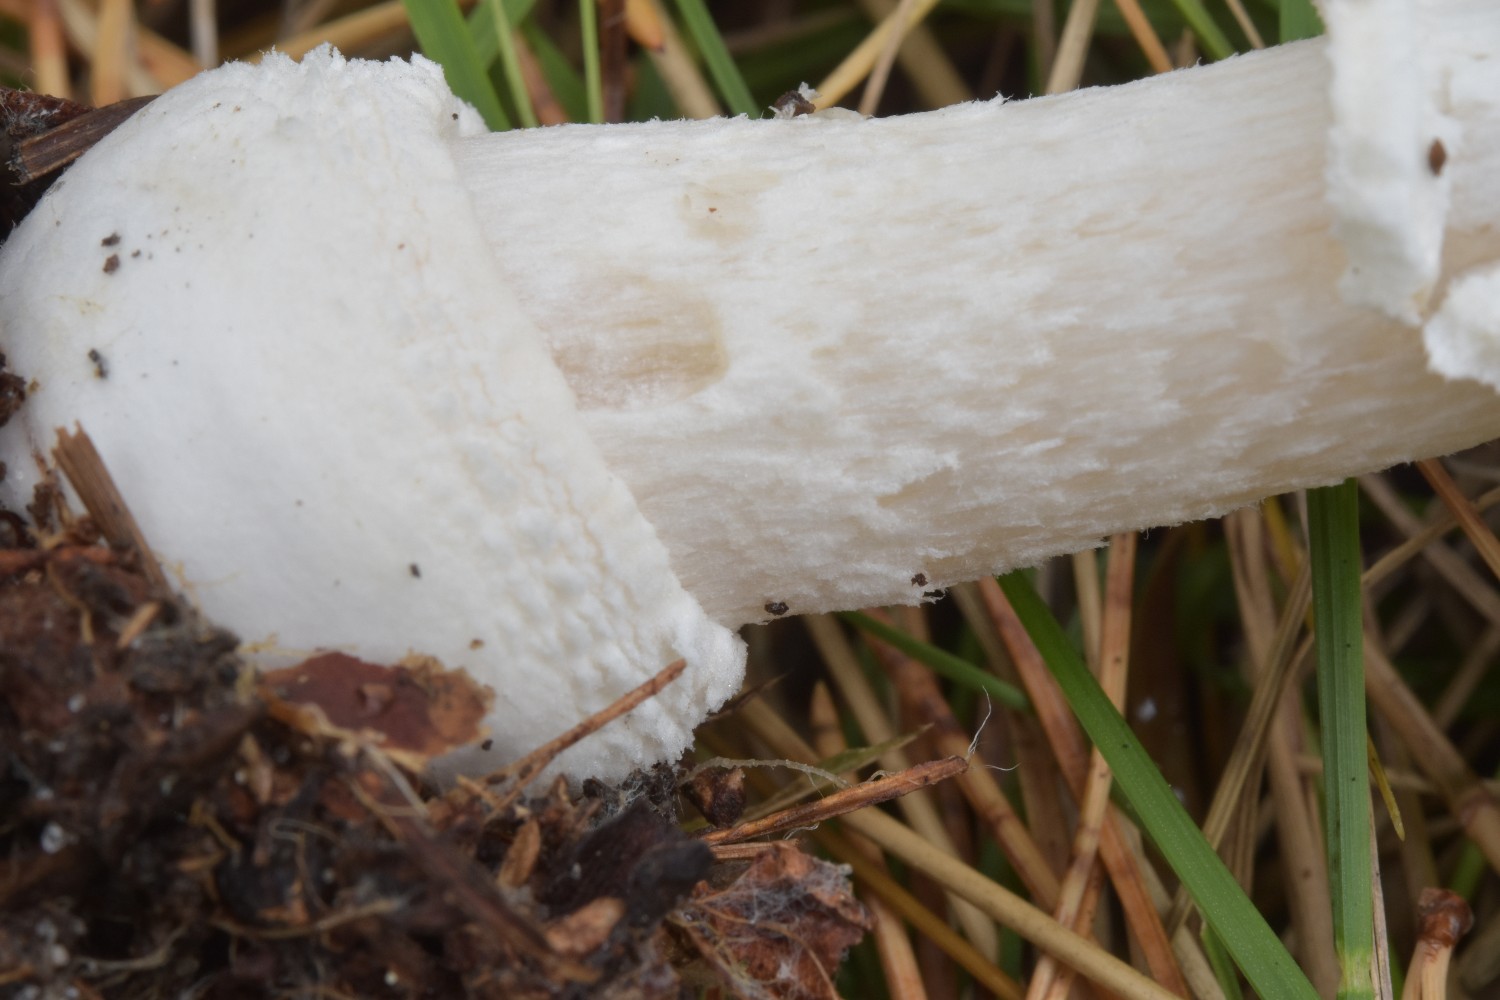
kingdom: Fungi
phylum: Basidiomycota
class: Agaricomycetes
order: Agaricales
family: Amanitaceae
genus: Amanita
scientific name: Amanita pantherina
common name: panter-fluesvamp
